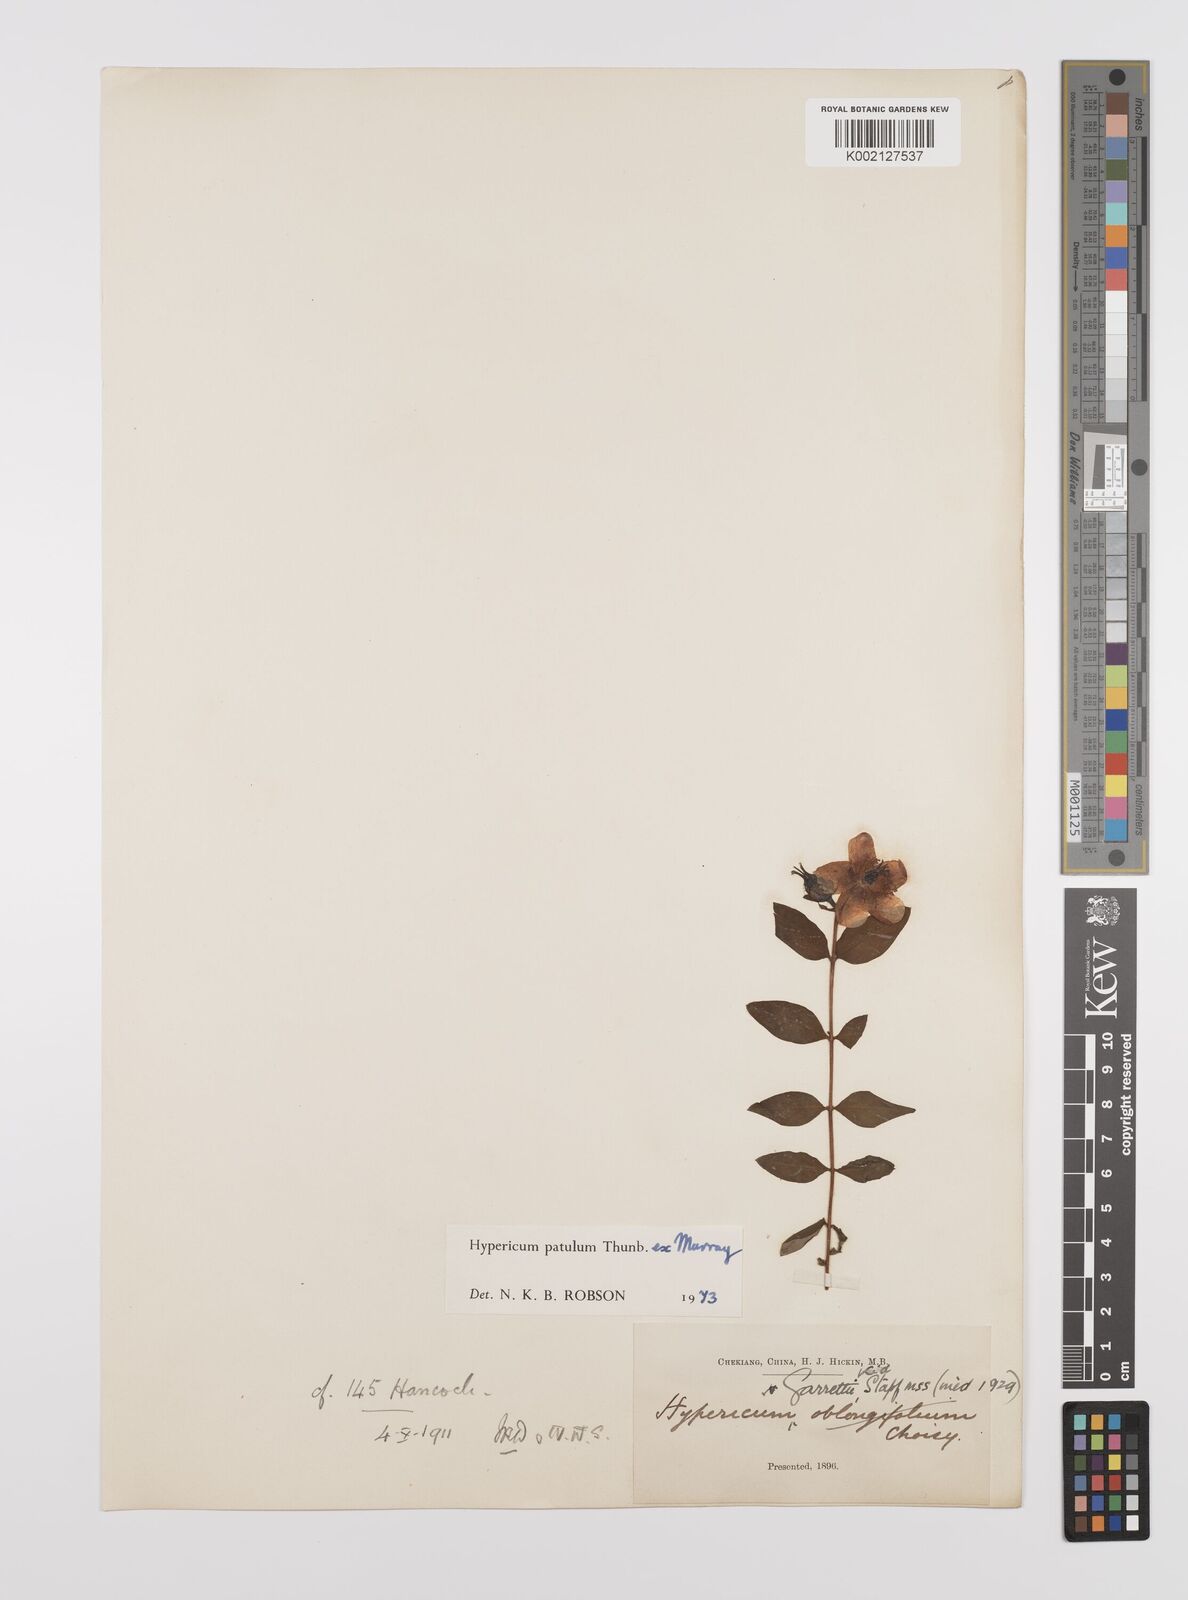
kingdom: Plantae
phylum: Tracheophyta
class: Magnoliopsida
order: Malpighiales
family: Hypericaceae
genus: Hypericum
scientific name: Hypericum patulum
